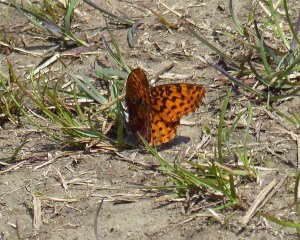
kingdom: Animalia
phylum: Arthropoda
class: Insecta
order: Lepidoptera
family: Nymphalidae
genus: Clossiana
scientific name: Clossiana toddi
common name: Meadow Fritillary
